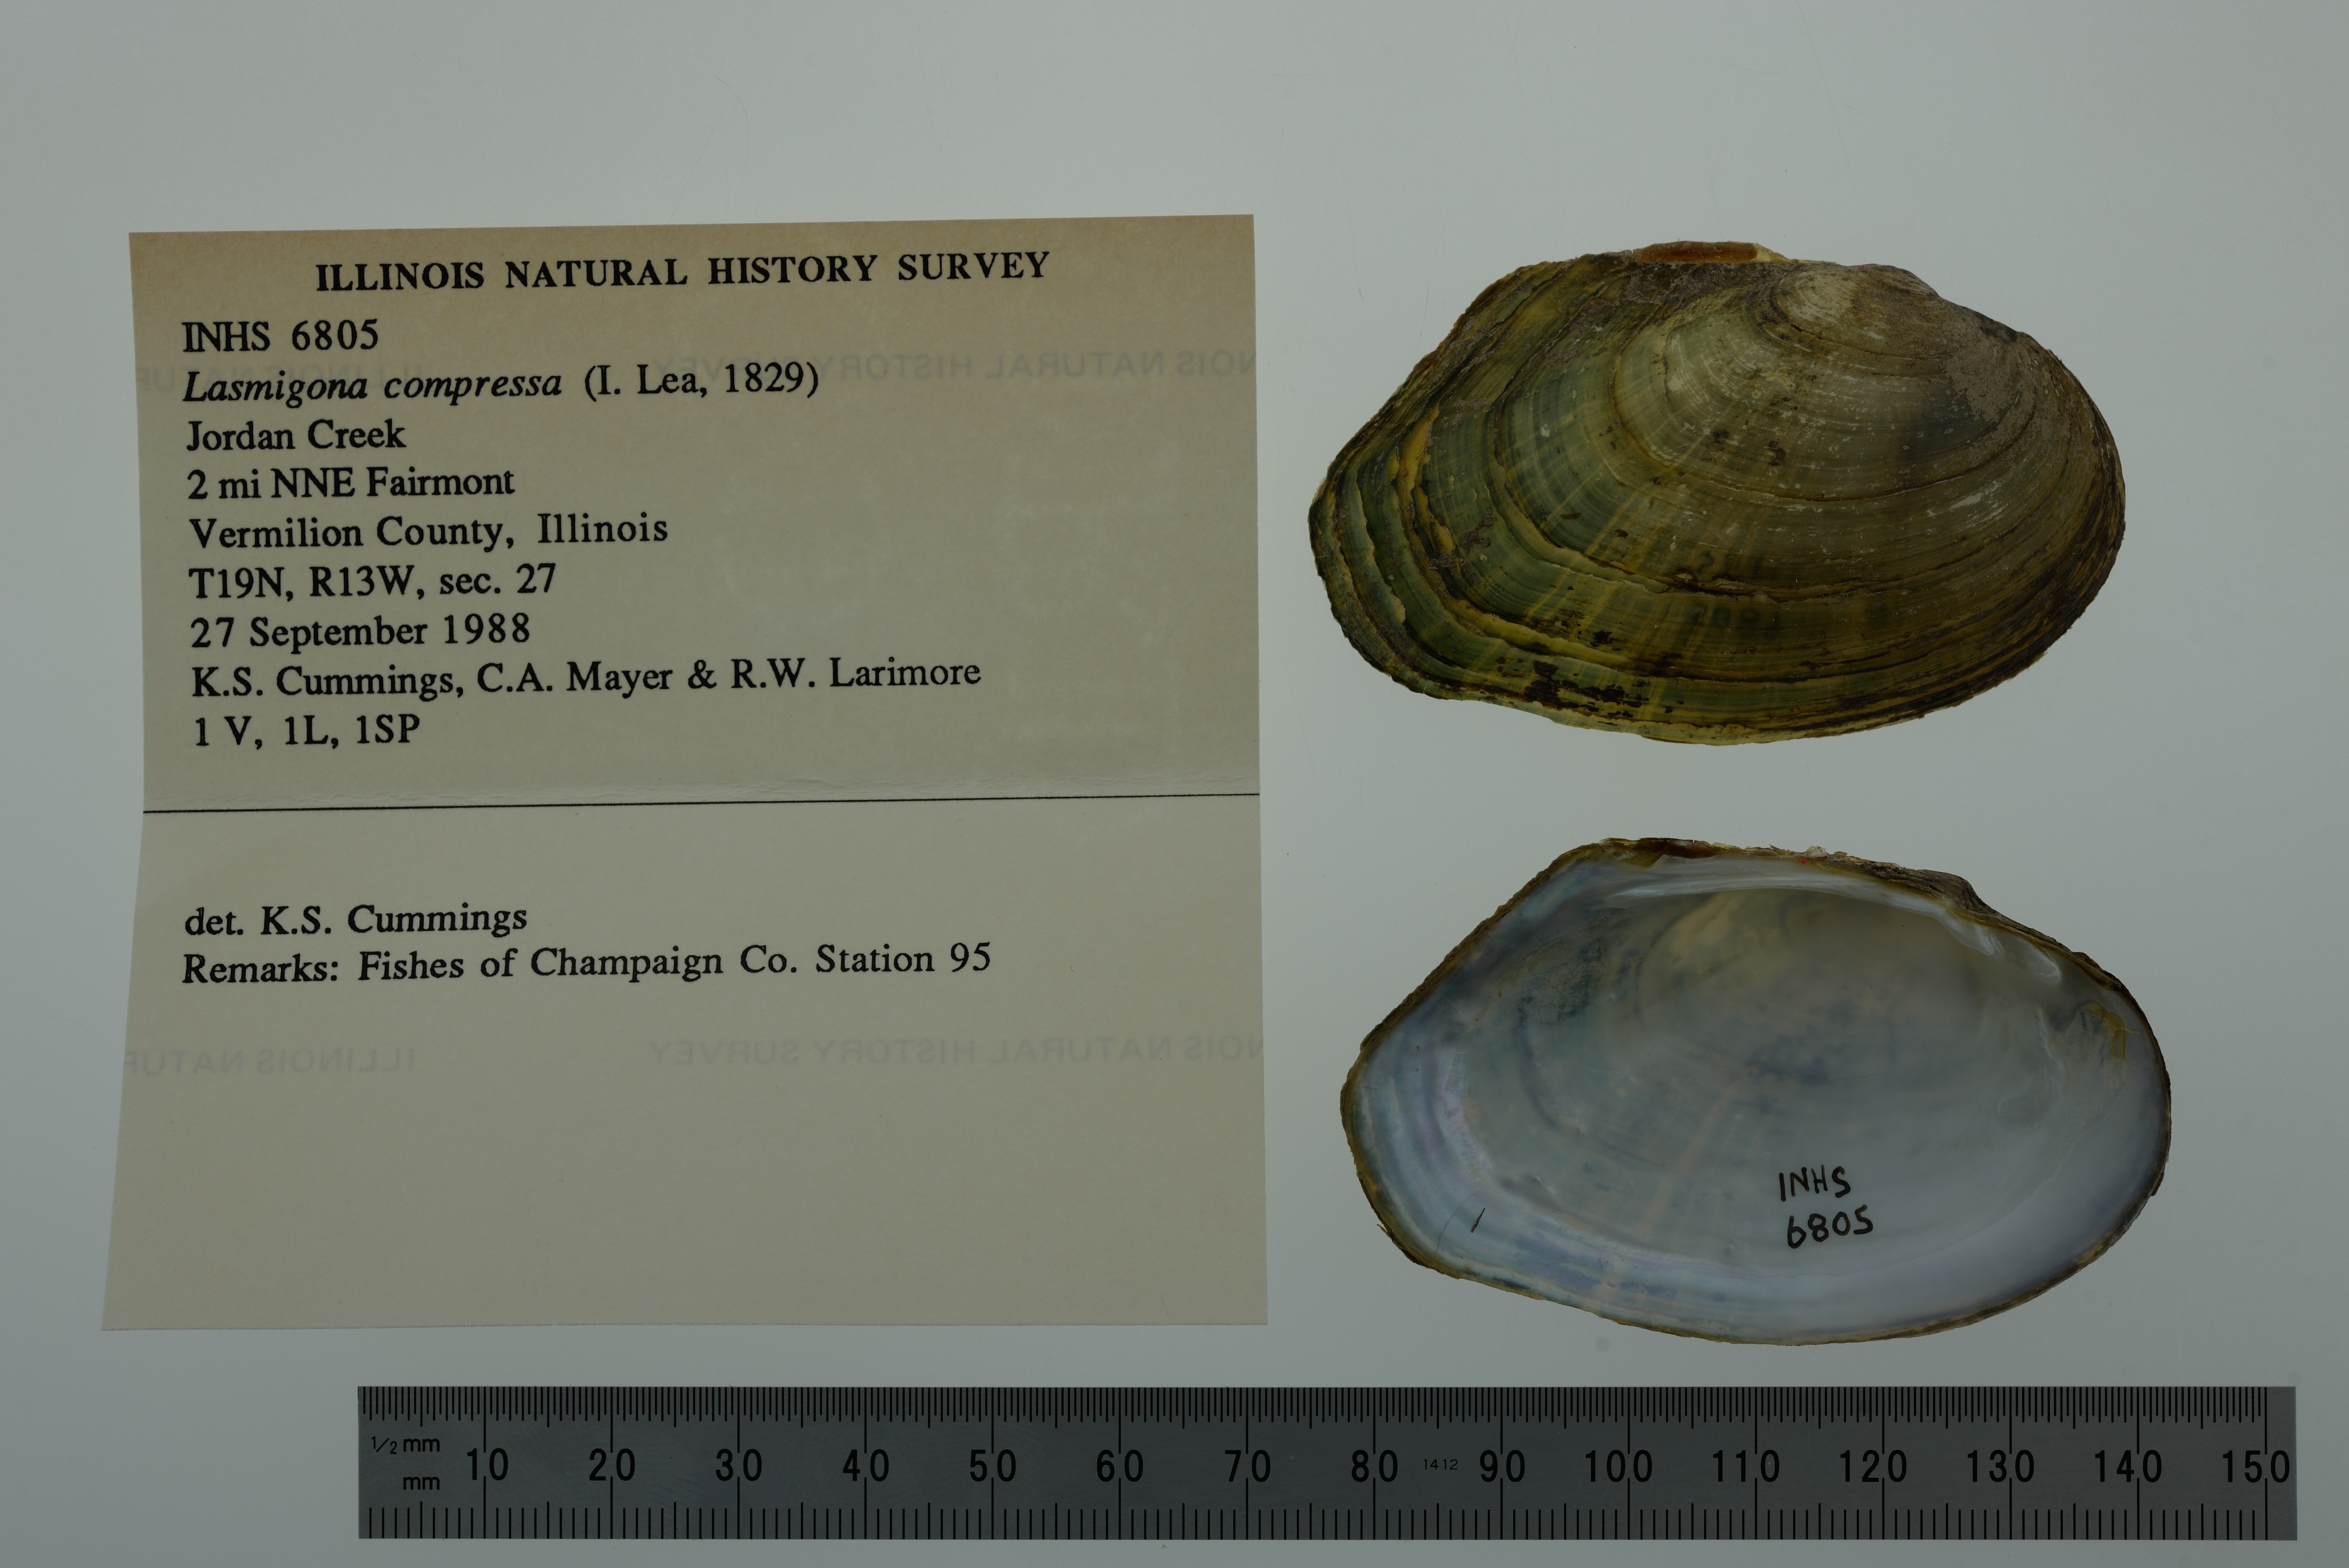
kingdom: Animalia
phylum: Mollusca
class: Bivalvia
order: Unionida
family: Unionidae
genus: Lasmigona
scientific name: Lasmigona compressa
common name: Creek heelsplitter
